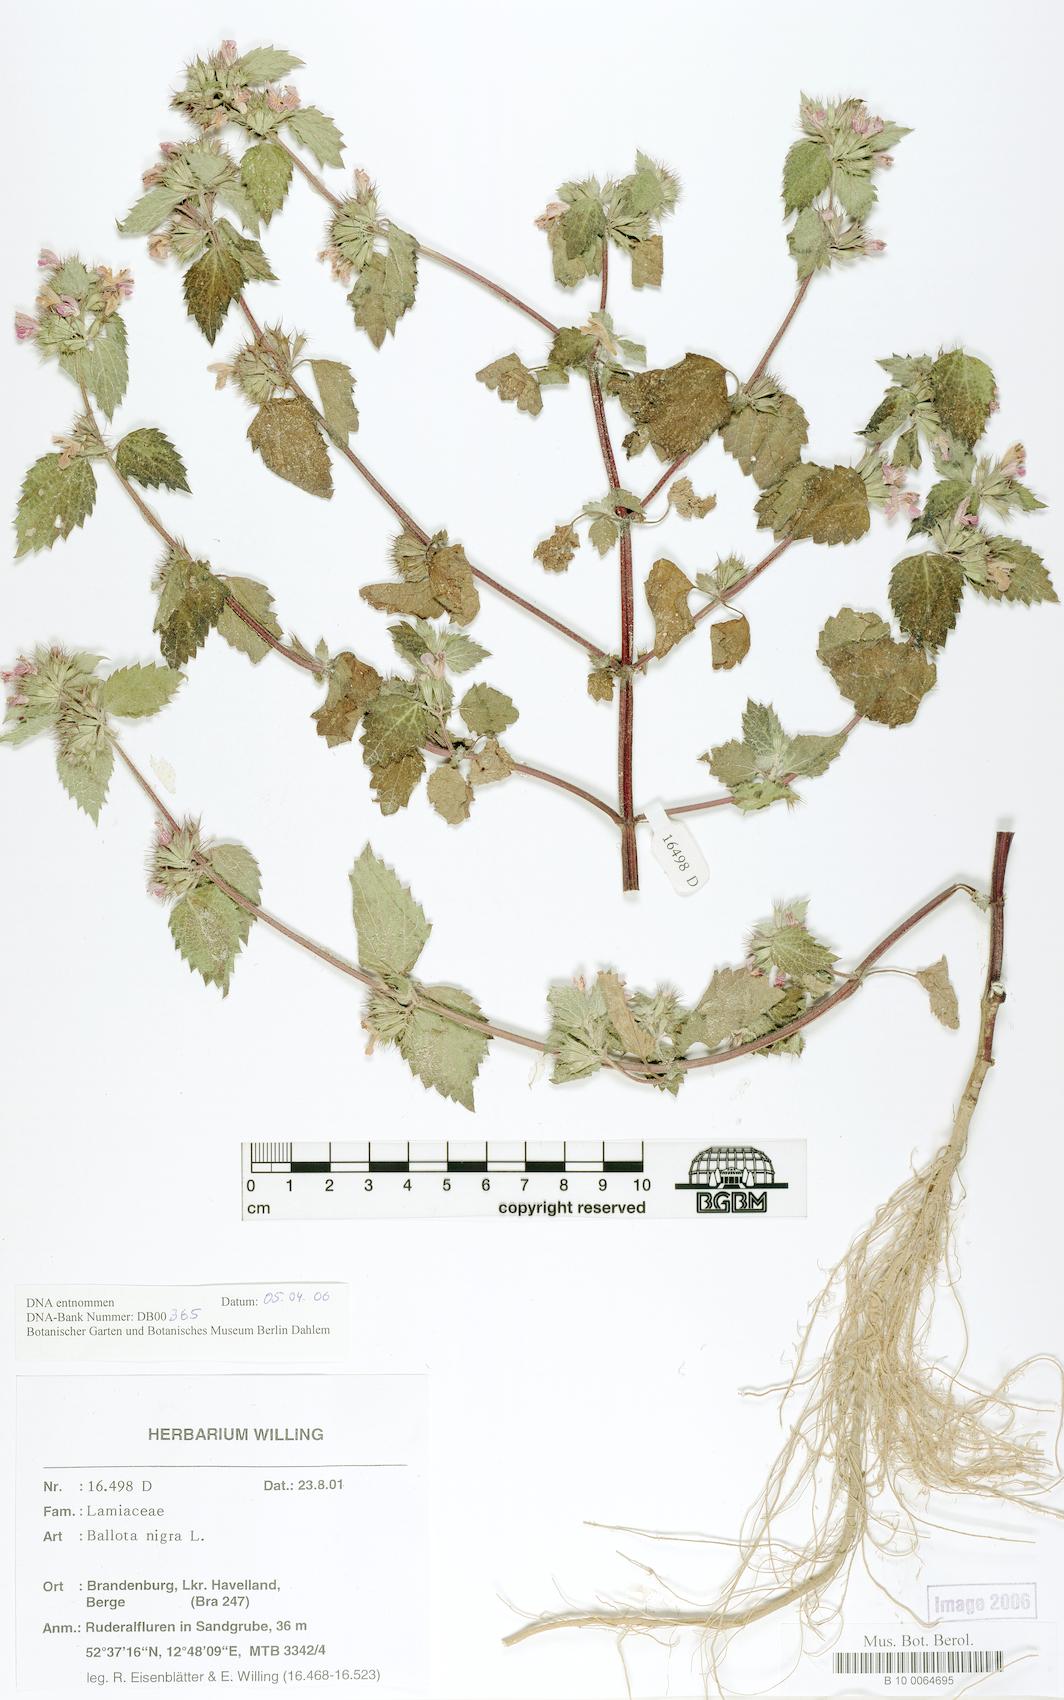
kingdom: Plantae
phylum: Tracheophyta
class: Magnoliopsida
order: Lamiales
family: Lamiaceae
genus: Ballota
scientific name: Ballota nigra
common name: Black horehound
